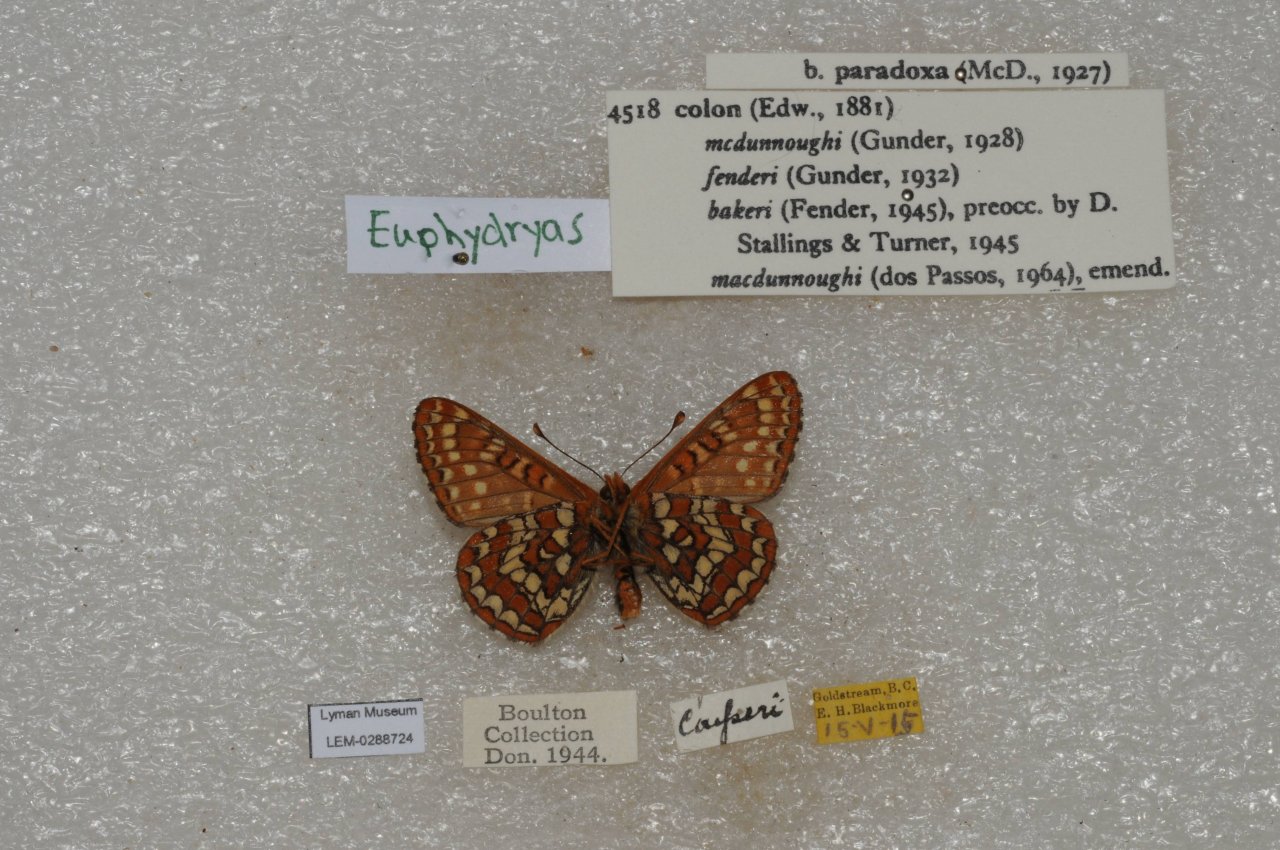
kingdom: Animalia
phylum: Arthropoda
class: Insecta
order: Lepidoptera
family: Nymphalidae
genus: Occidryas
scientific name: Occidryas colon
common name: Snowberry Checkerspot
